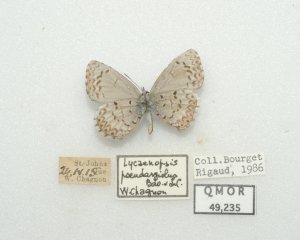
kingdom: Animalia
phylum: Arthropoda
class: Insecta
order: Lepidoptera
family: Lycaenidae
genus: Celastrina
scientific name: Celastrina lucia
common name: Northern Spring Azure
